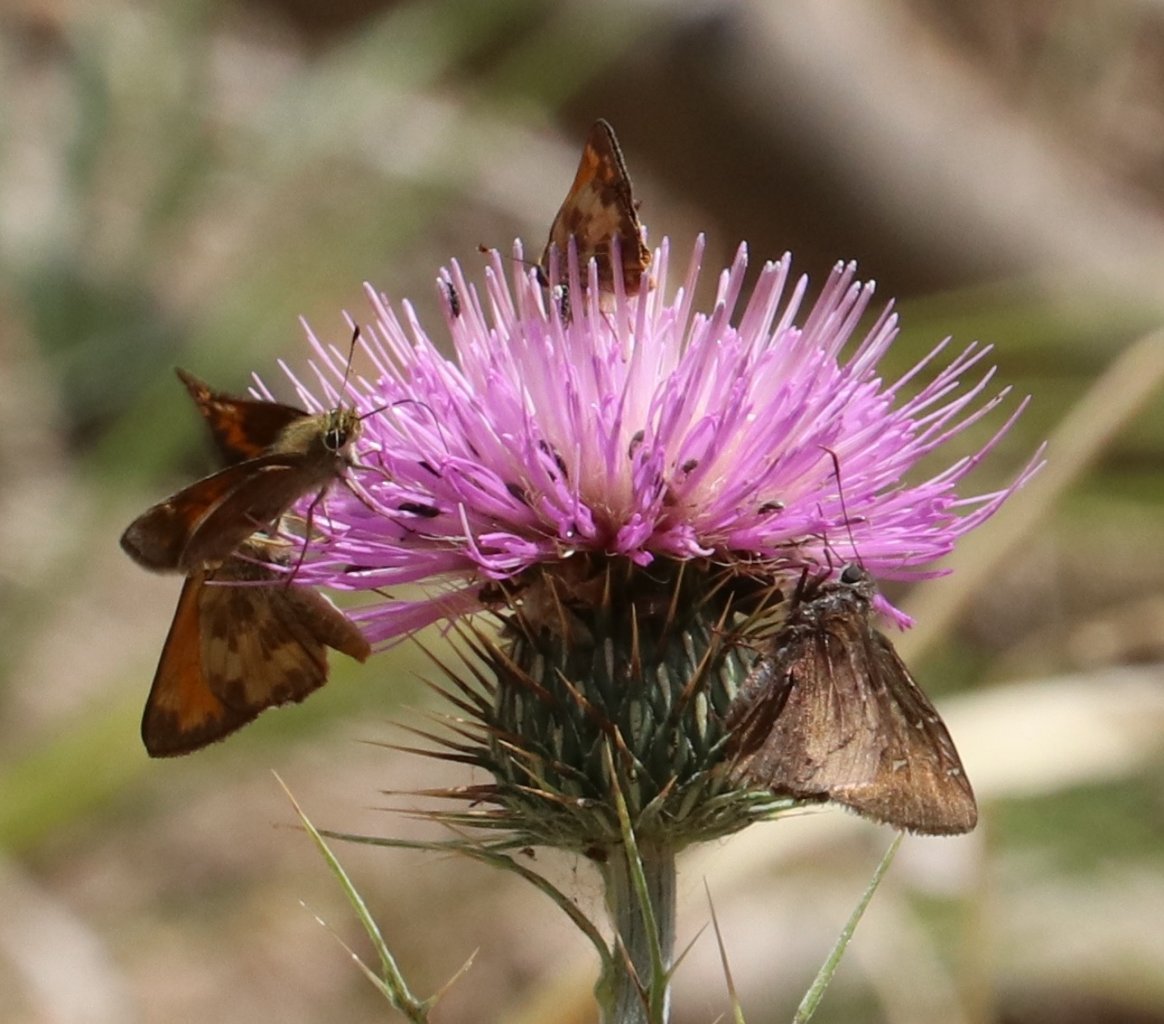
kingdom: Animalia
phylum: Arthropoda
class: Insecta
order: Lepidoptera
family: Hesperiidae
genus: Autochton
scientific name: Autochton
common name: Northern Cloudywing
